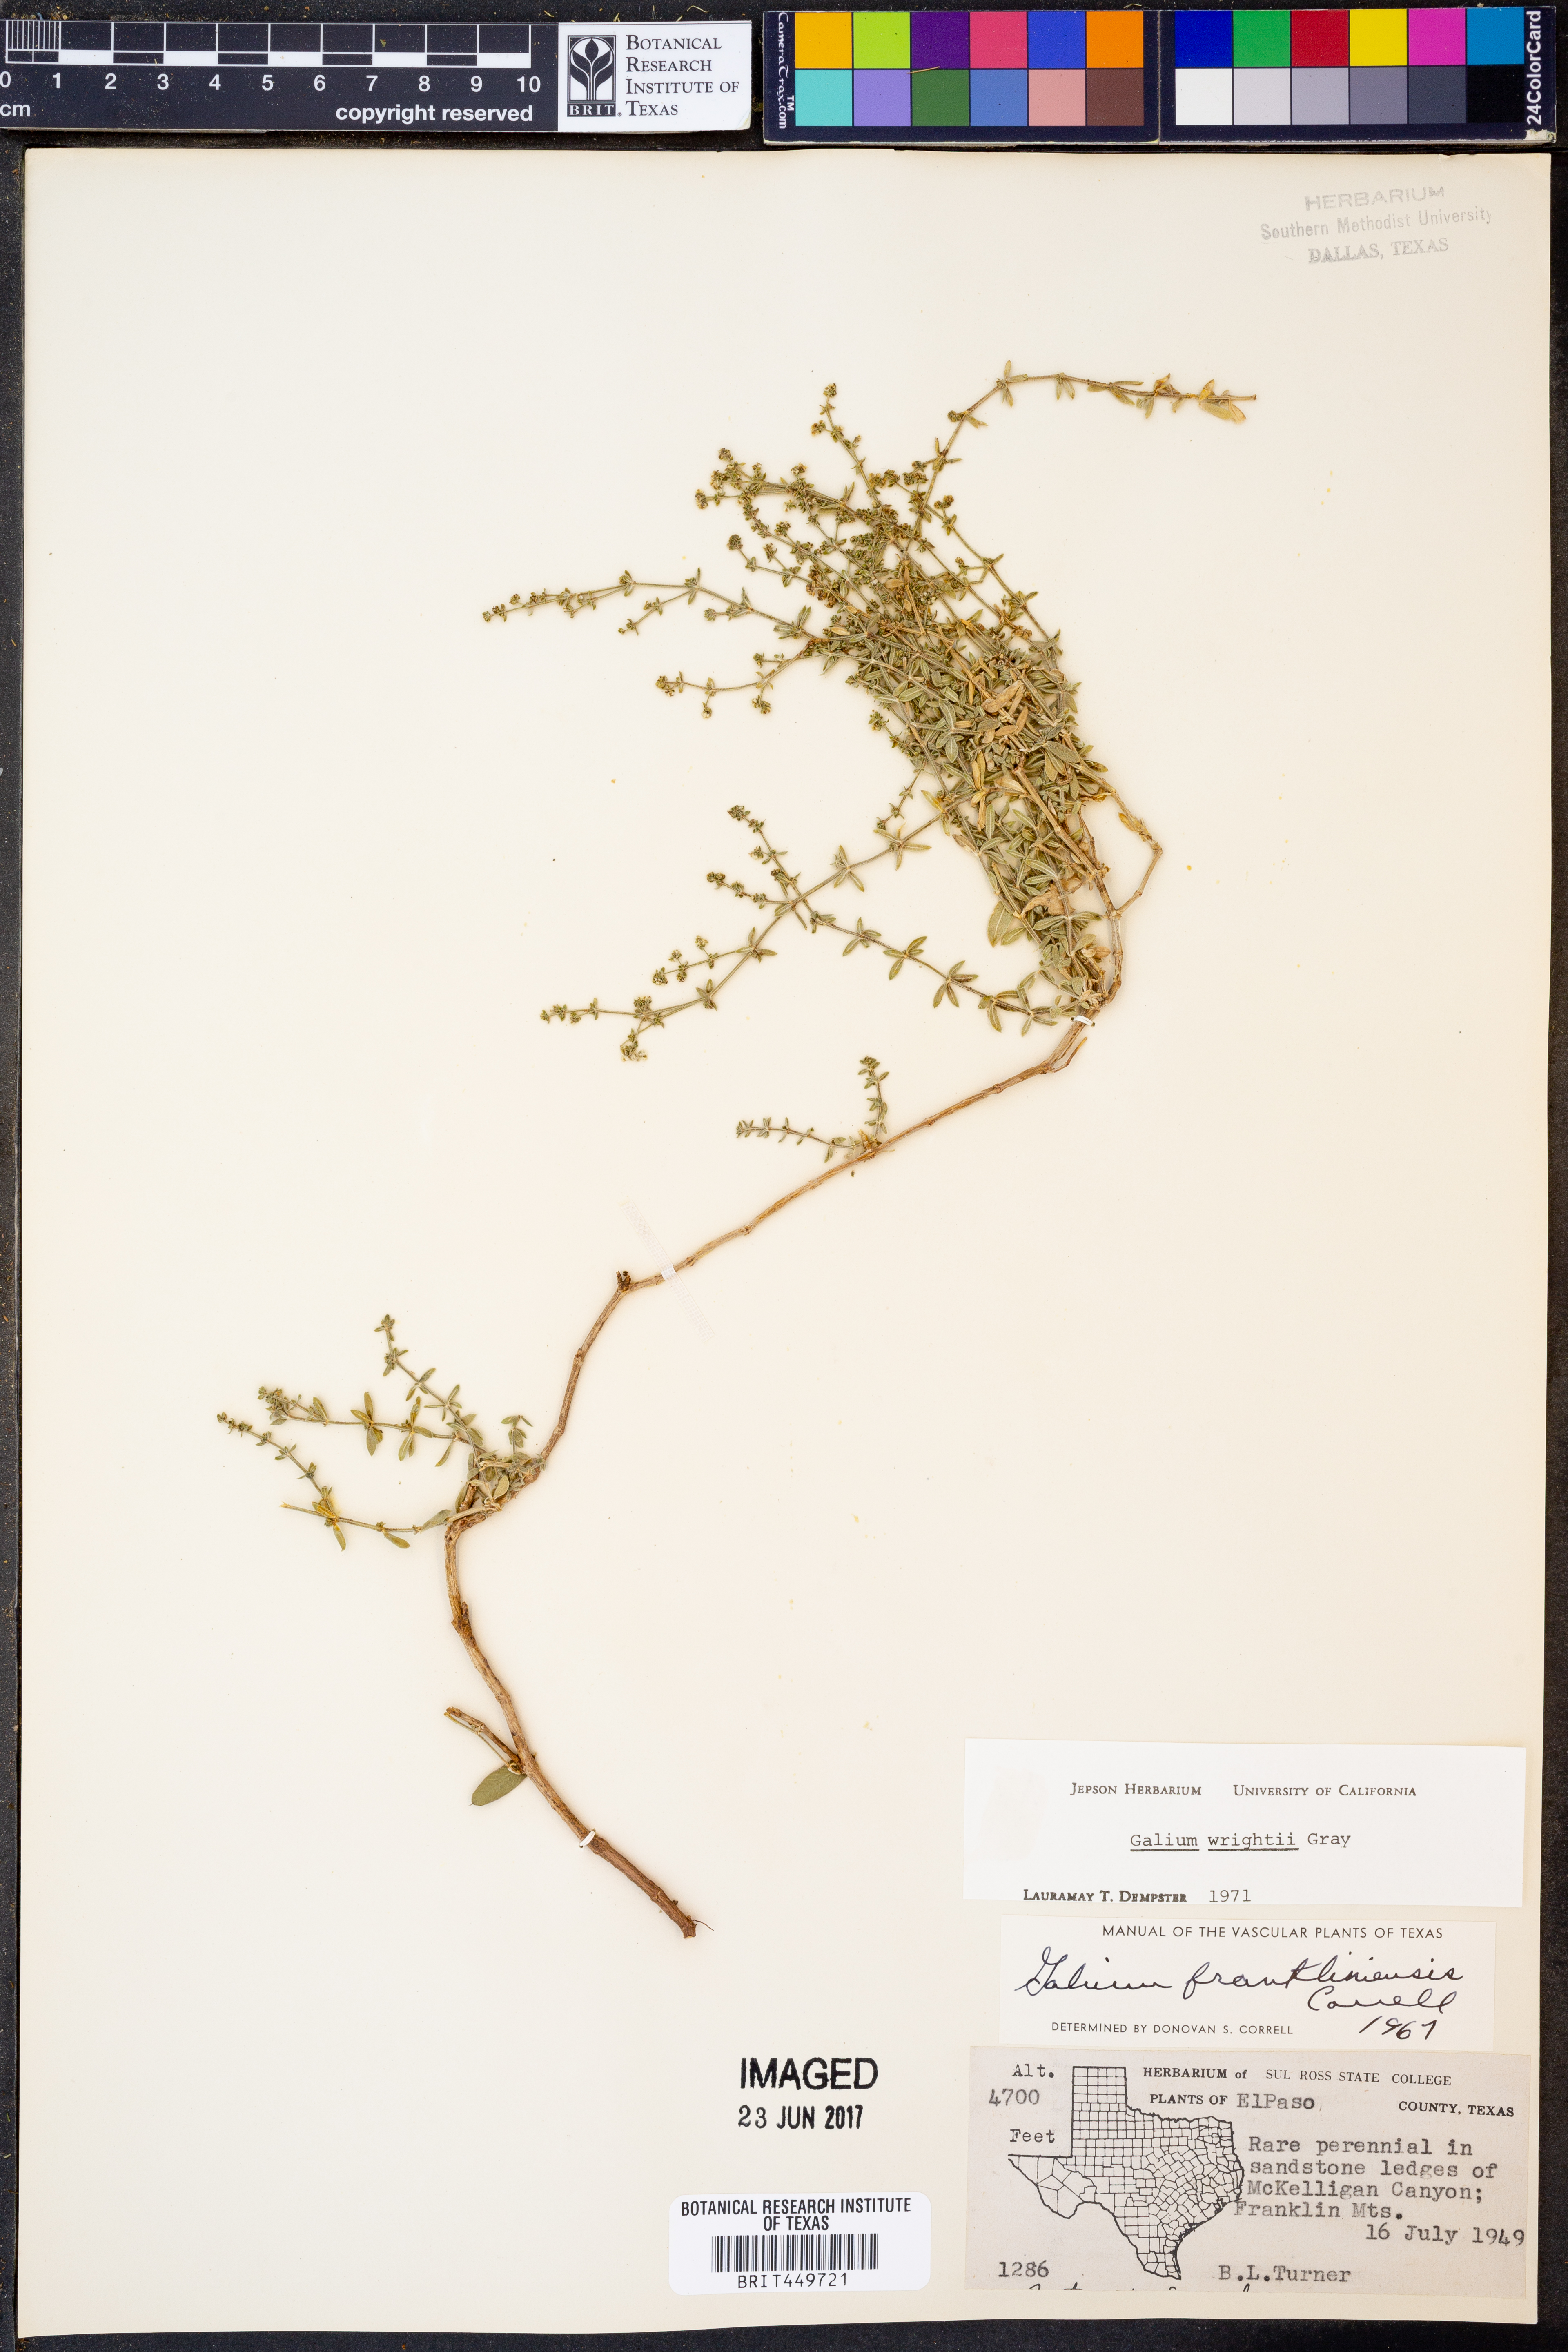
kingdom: Plantae
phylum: Tracheophyta
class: Magnoliopsida
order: Gentianales
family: Rubiaceae
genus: Galium
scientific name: Galium wrightii
